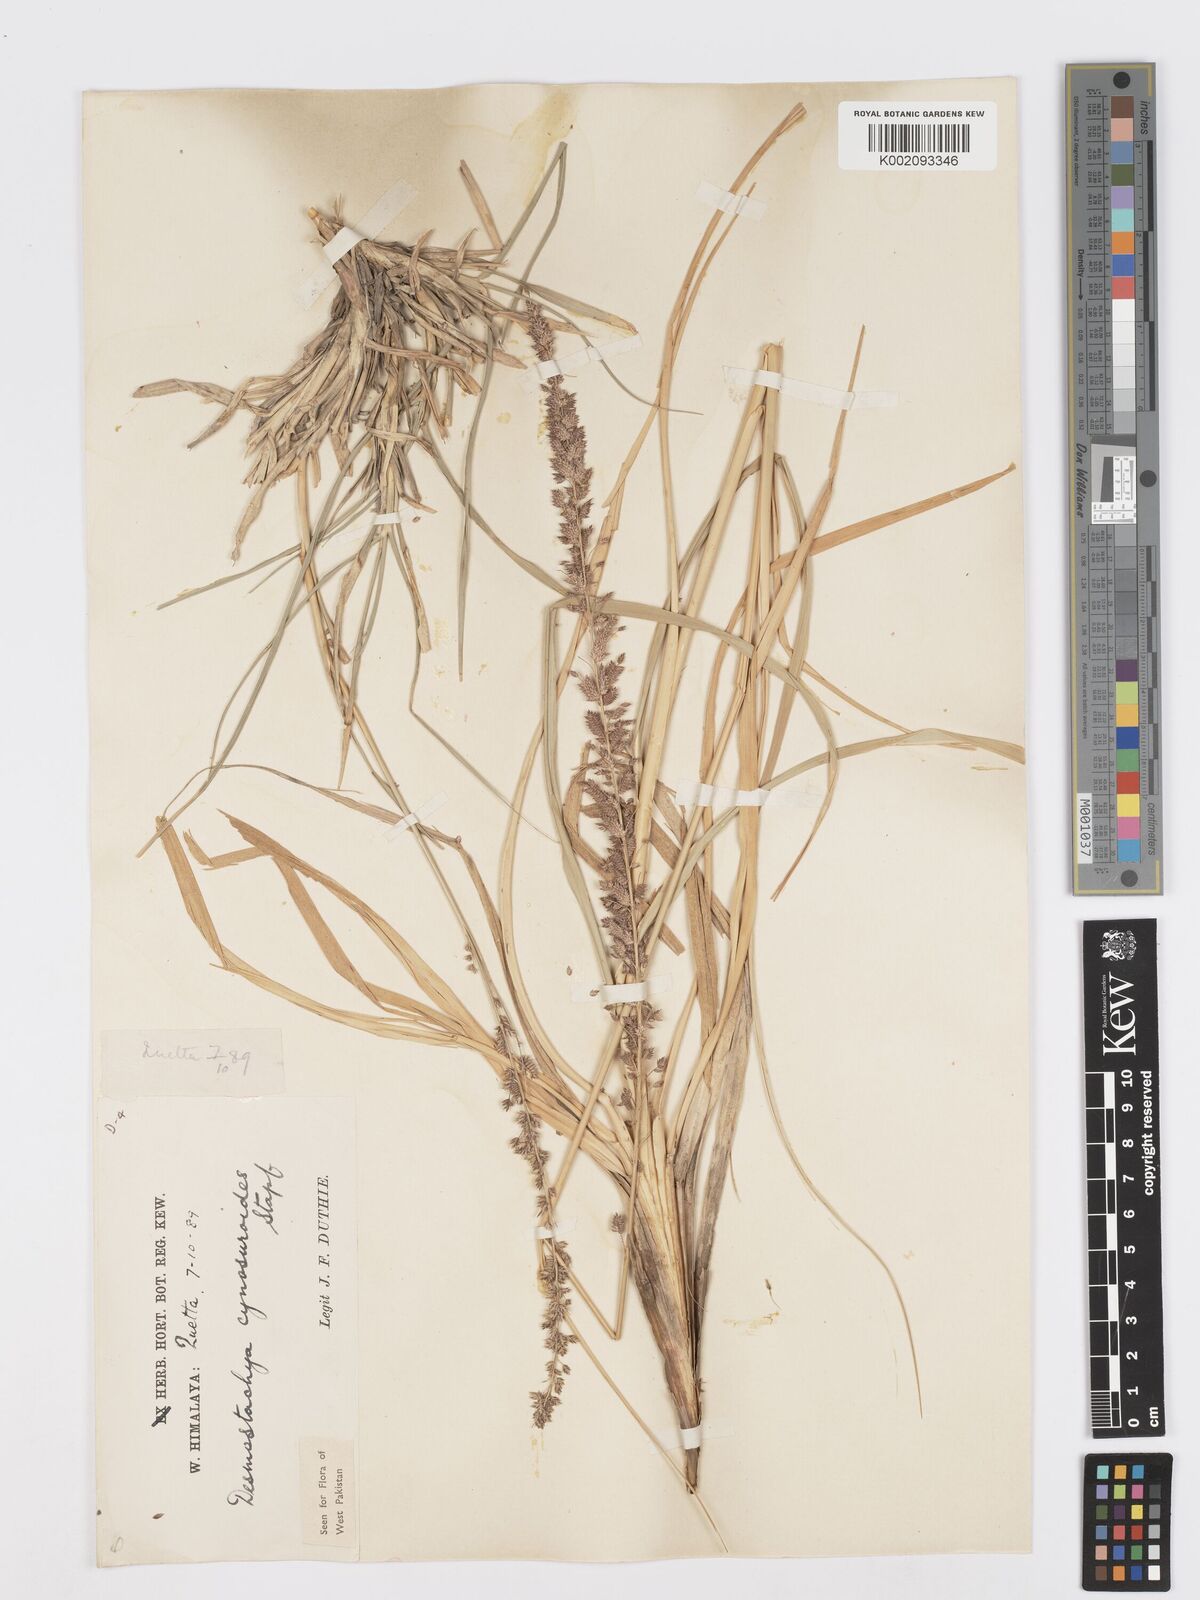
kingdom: Plantae
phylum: Tracheophyta
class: Liliopsida
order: Poales
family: Poaceae
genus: Desmostachya
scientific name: Desmostachya bipinnata
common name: Crowfoot grass
